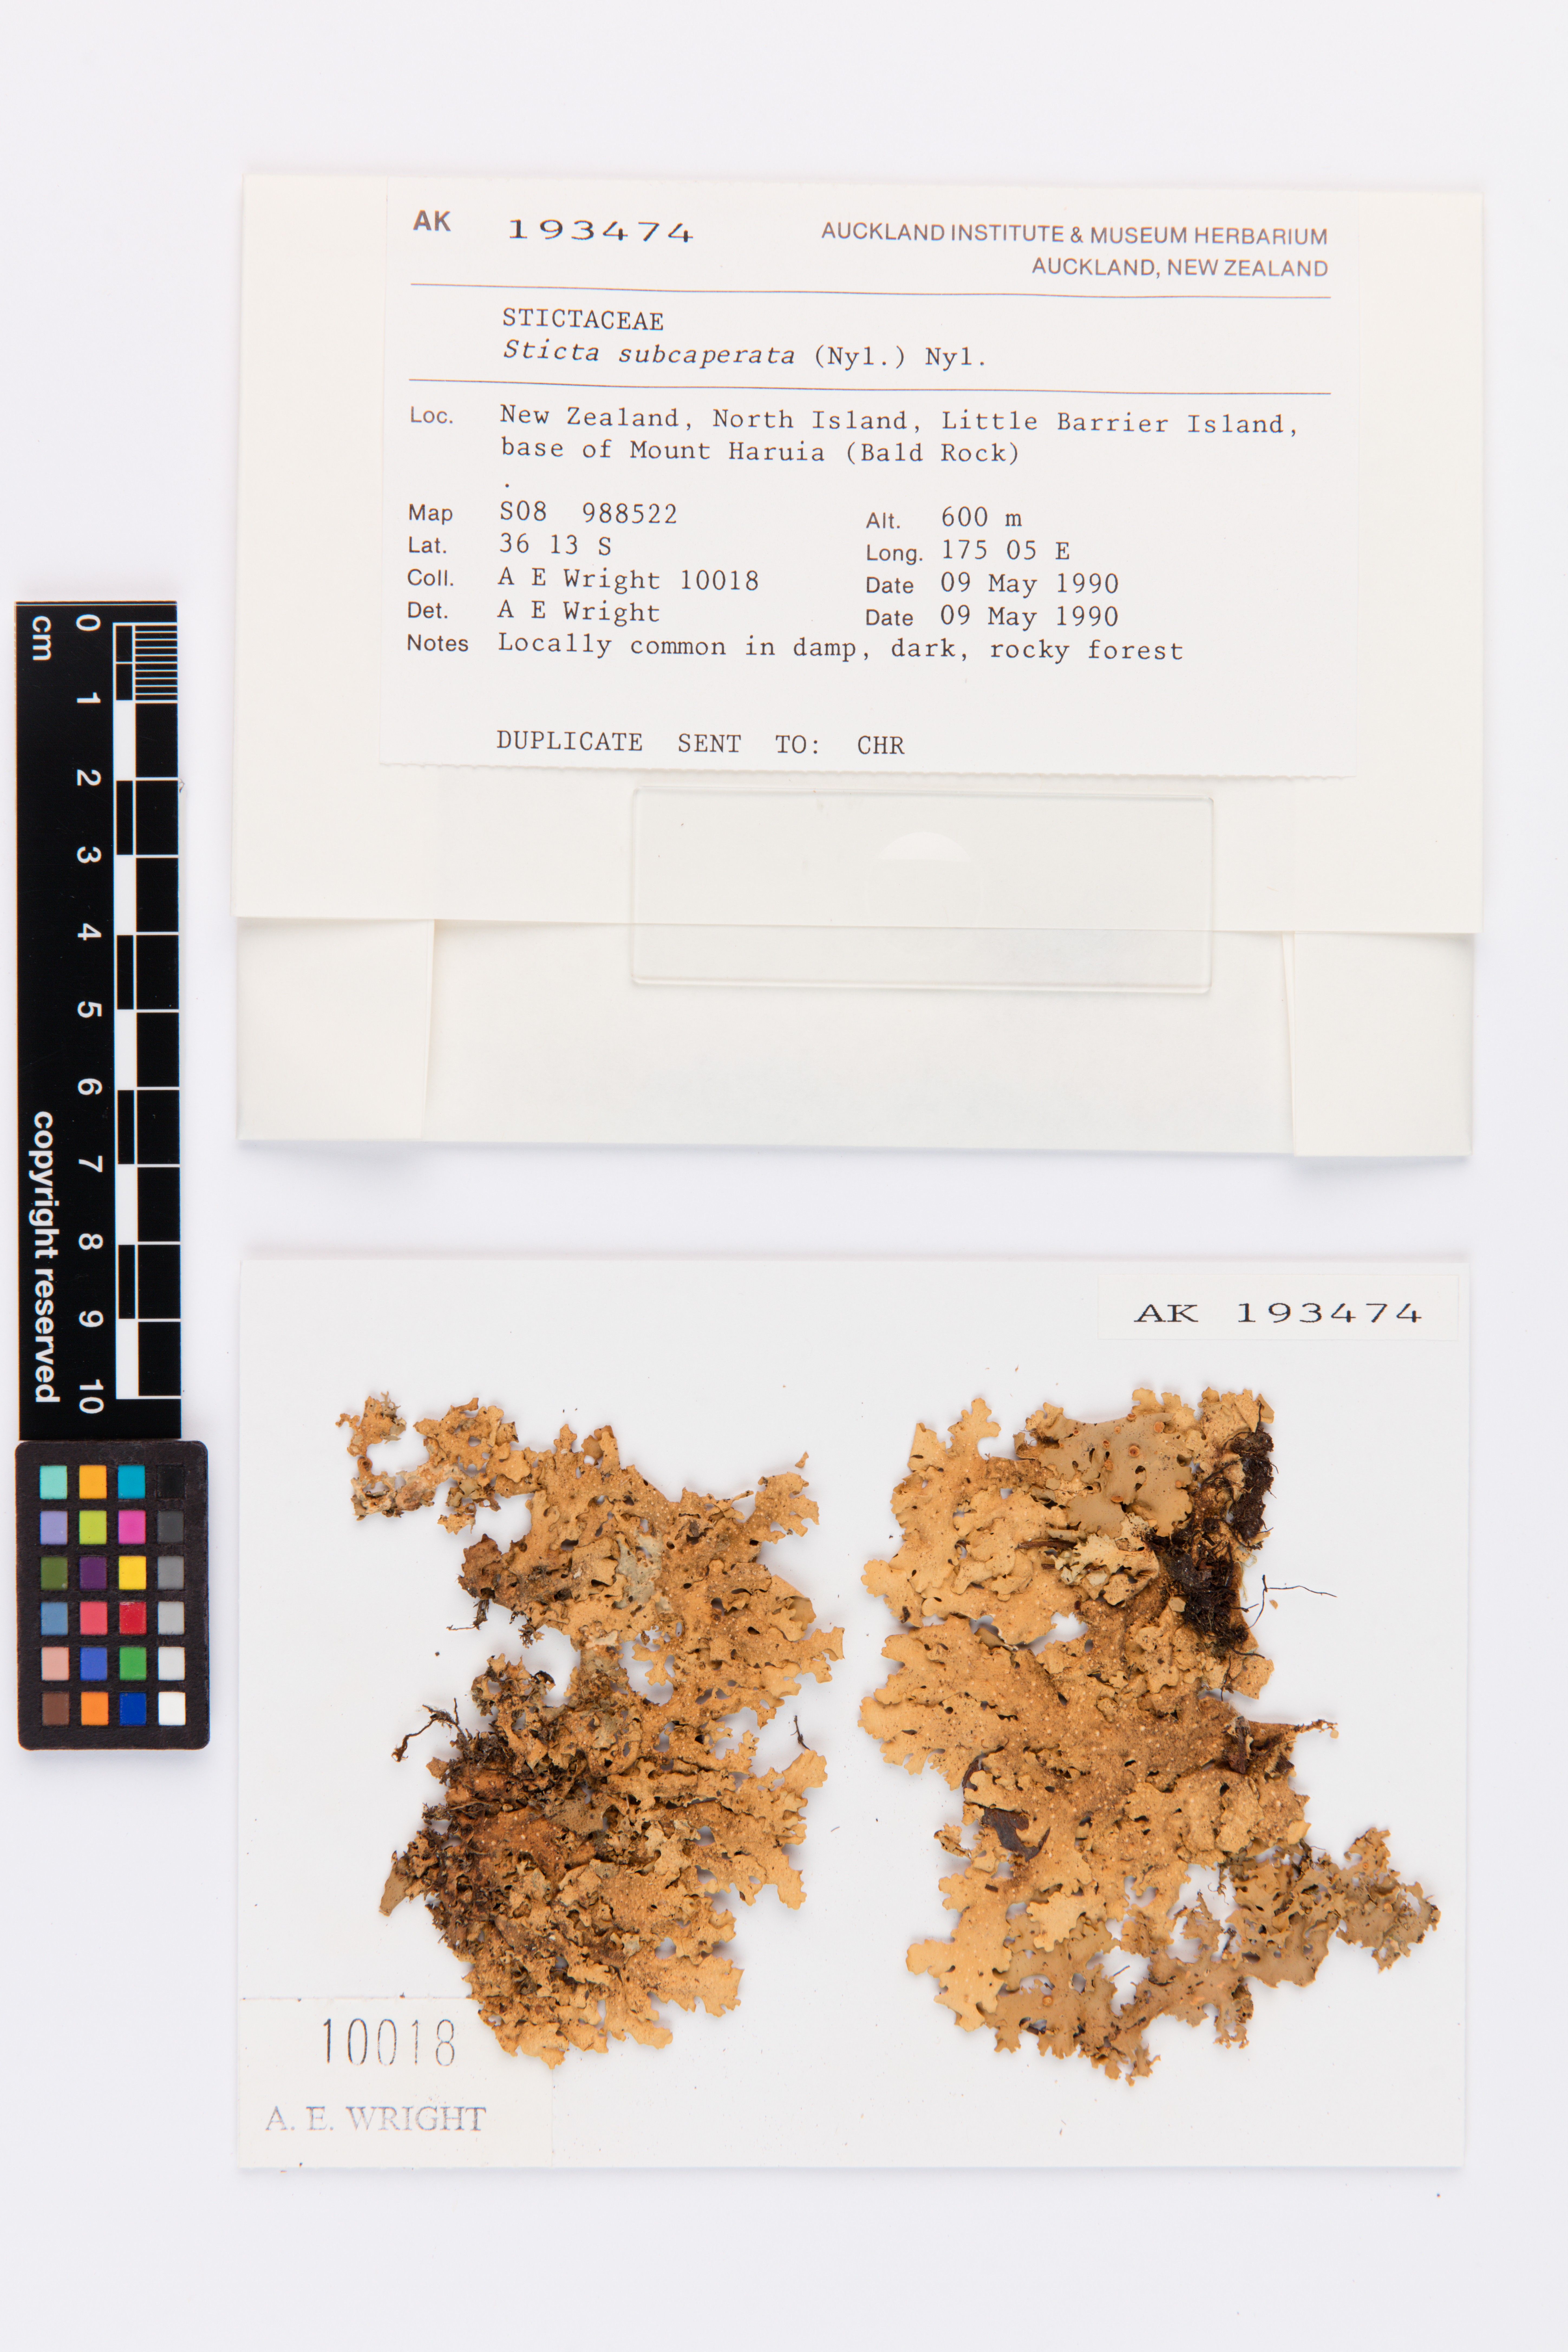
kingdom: Fungi
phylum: Ascomycota
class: Lecanoromycetes
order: Peltigerales
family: Lobariaceae
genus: Sticta
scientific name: Sticta subcaperata
